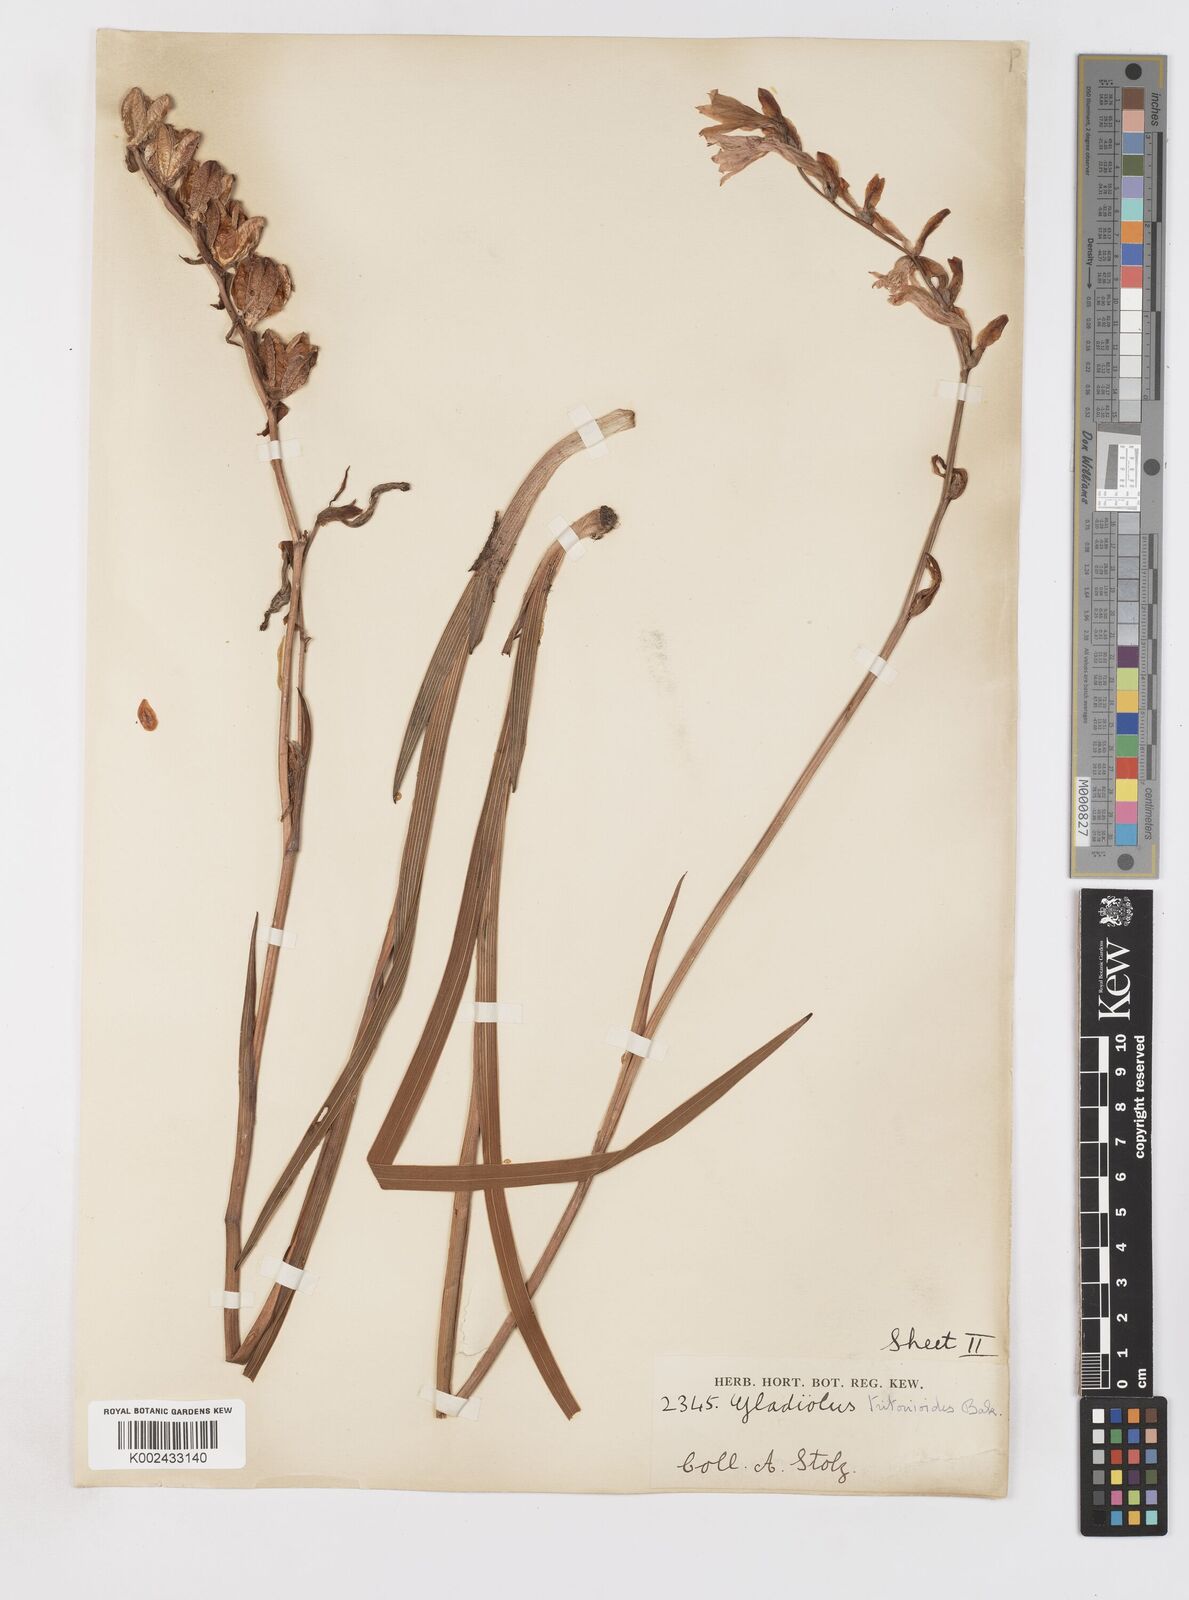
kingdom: Plantae
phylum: Tracheophyta
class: Liliopsida
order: Asparagales
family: Iridaceae
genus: Gladiolus
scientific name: Gladiolus laxiflorus
